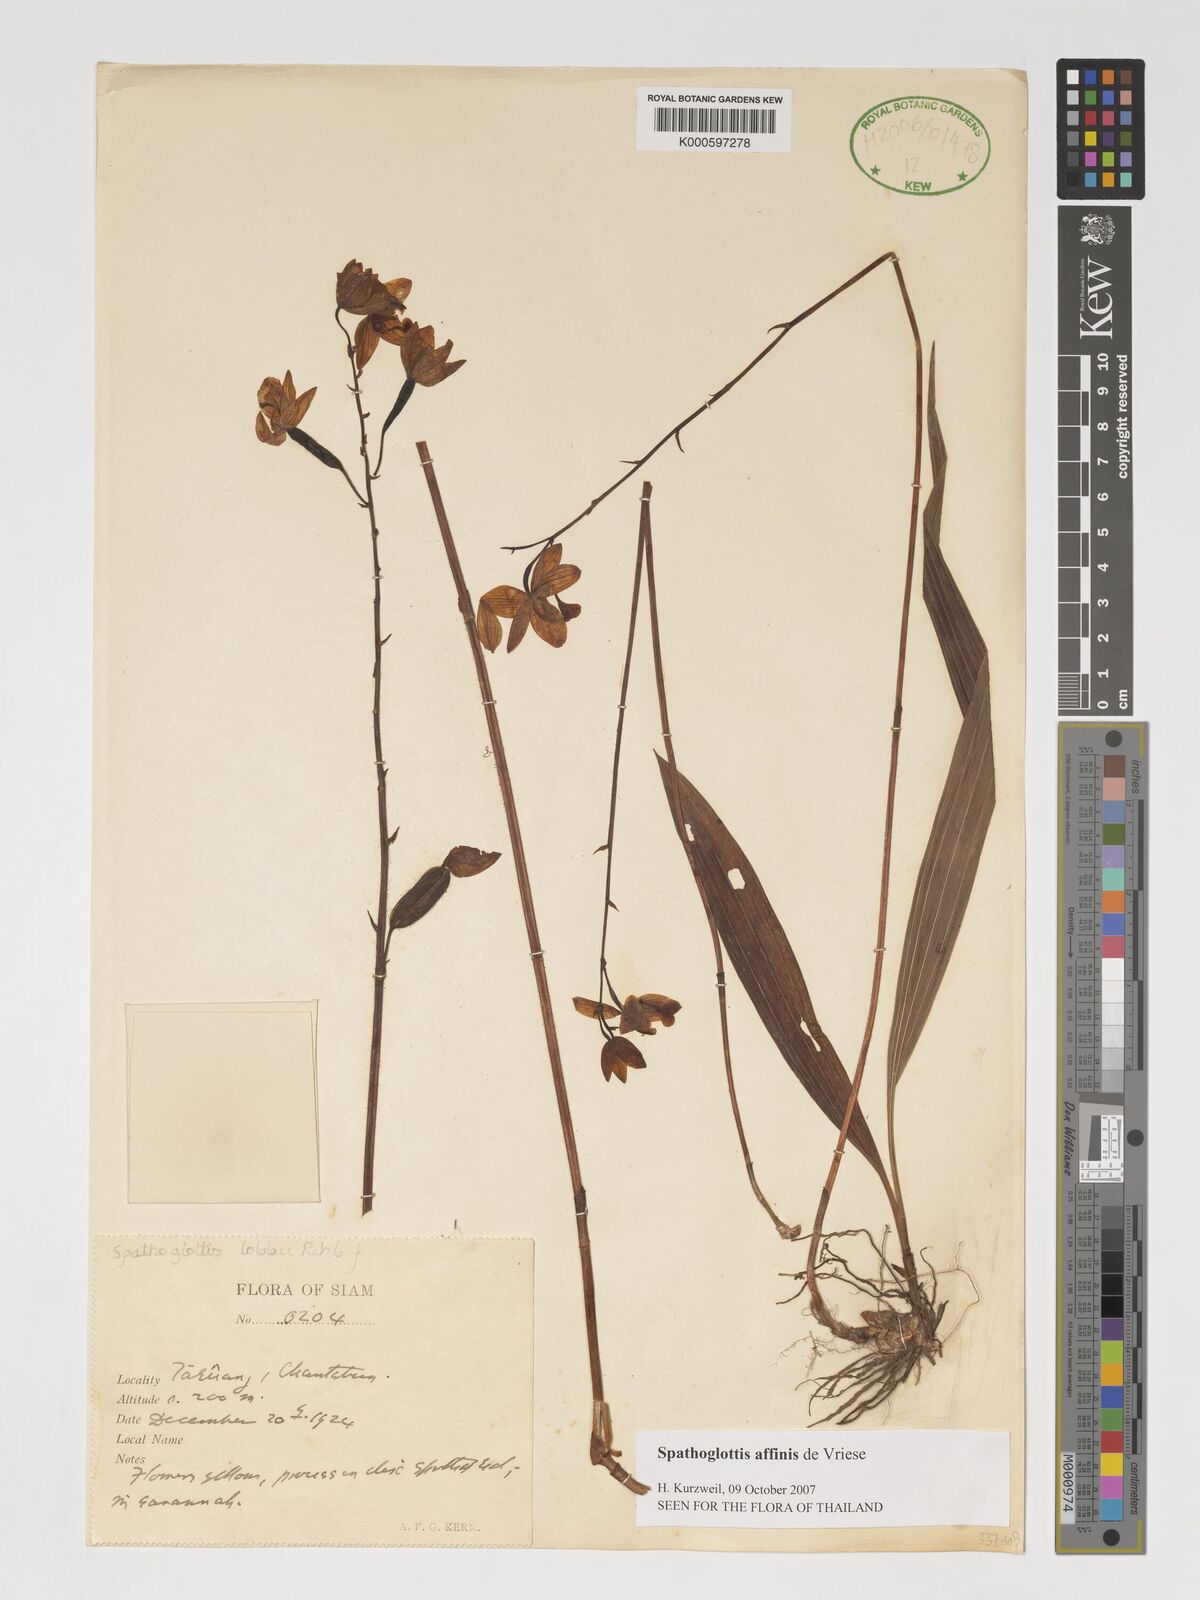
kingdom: Plantae
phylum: Tracheophyta
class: Liliopsida
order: Asparagales
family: Orchidaceae
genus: Spathoglottis
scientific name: Spathoglottis affinis
